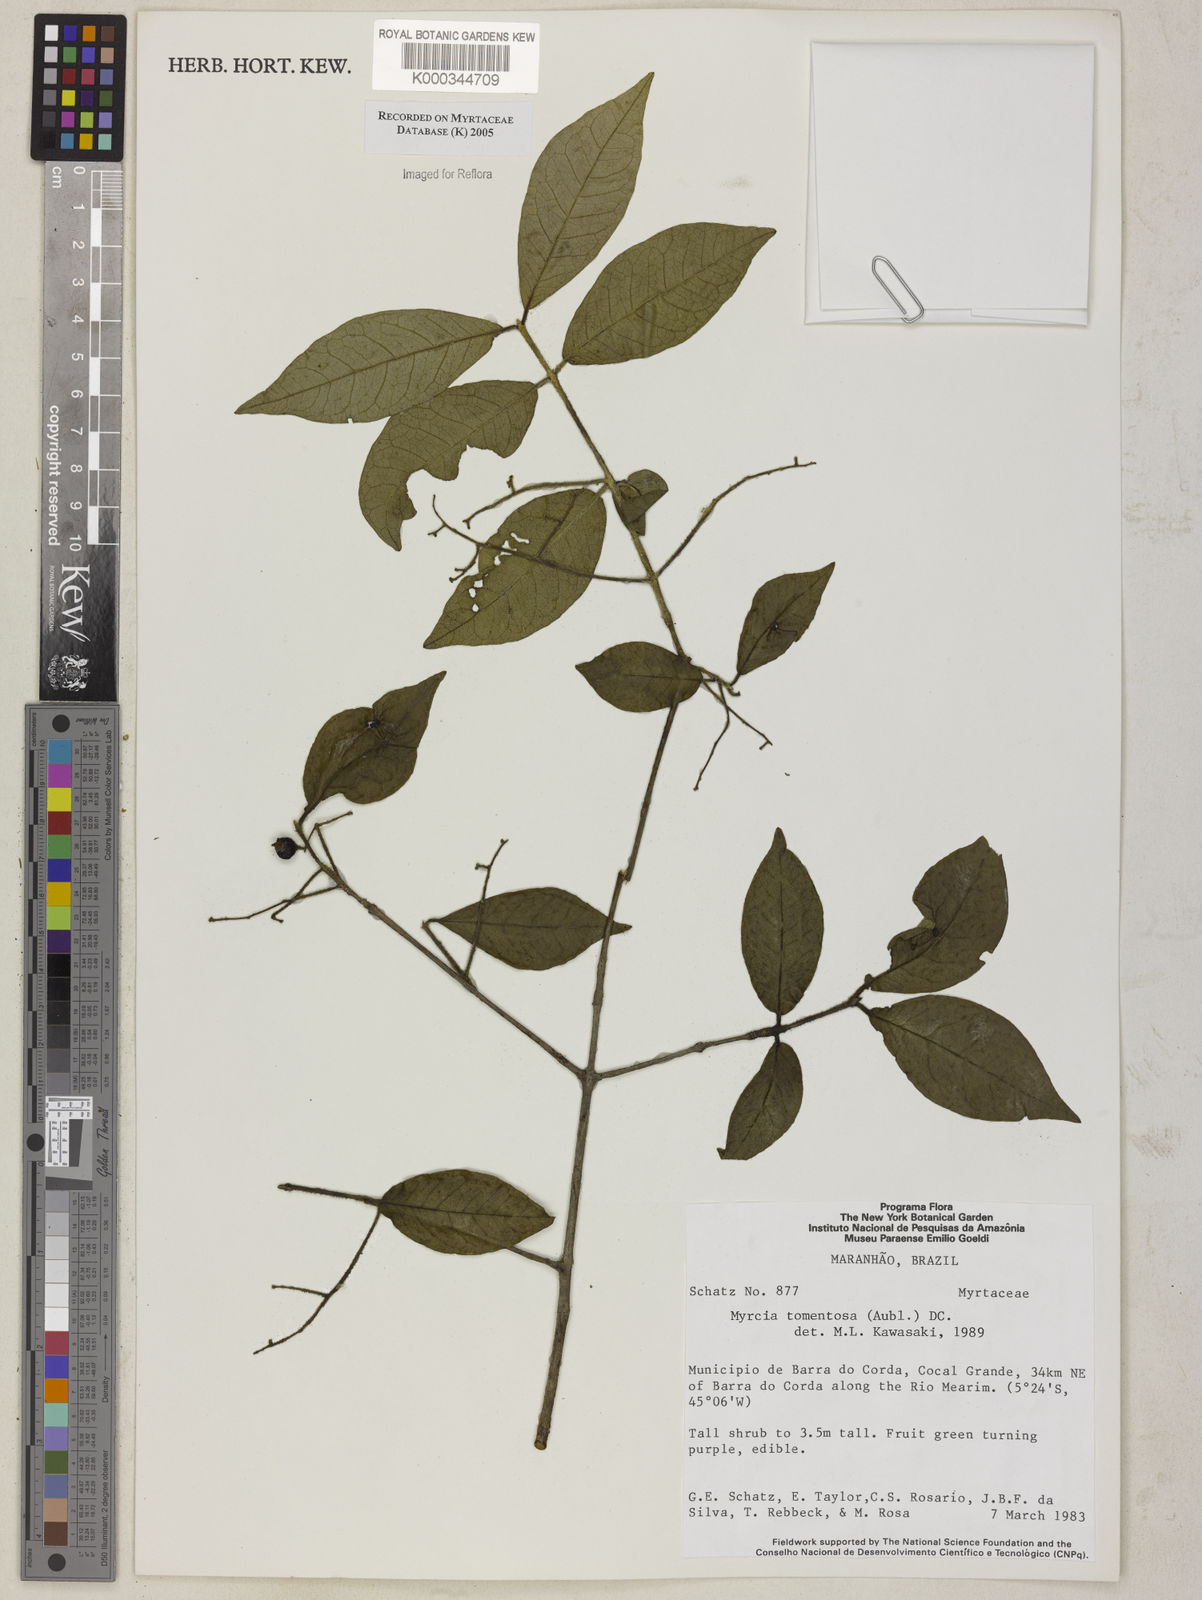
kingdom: Plantae
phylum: Tracheophyta
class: Magnoliopsida
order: Myrtales
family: Myrtaceae
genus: Myrcia
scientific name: Myrcia tomentosa
